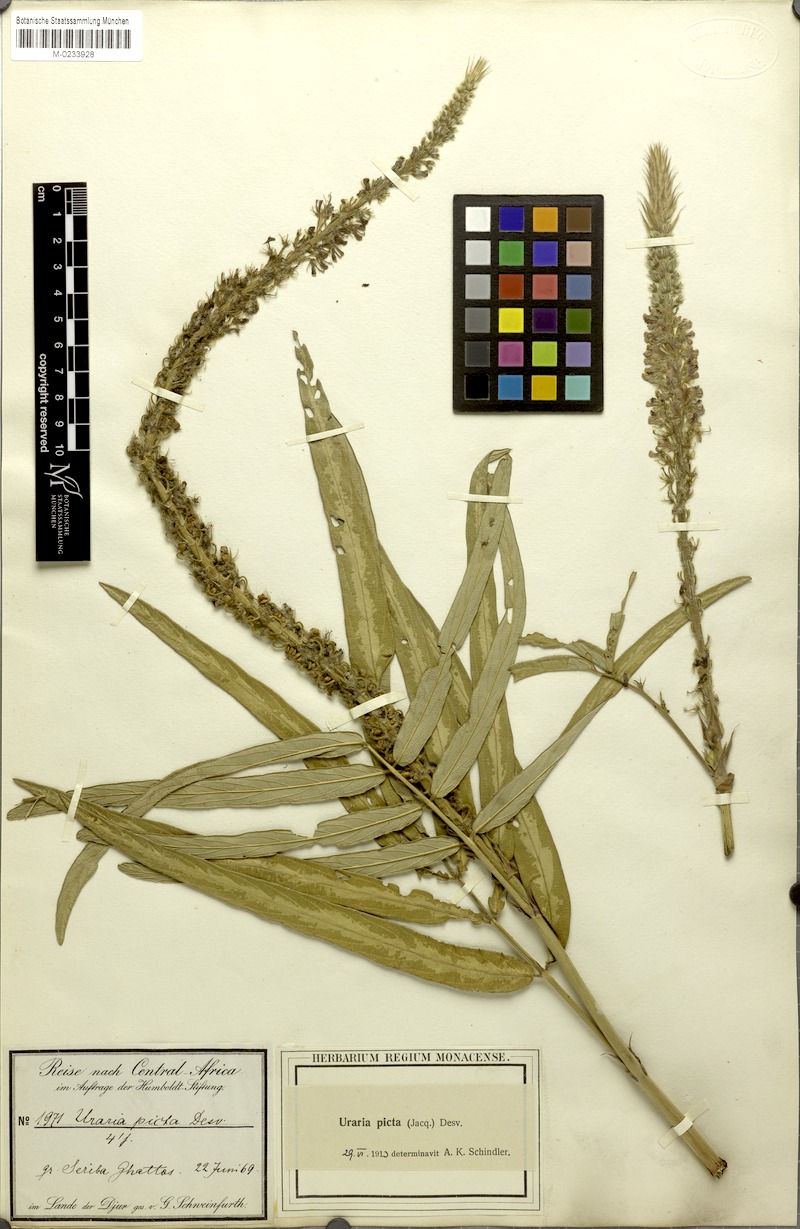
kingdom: Plantae
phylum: Tracheophyta
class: Magnoliopsida
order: Fabales
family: Fabaceae
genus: Uraria
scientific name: Uraria picta
